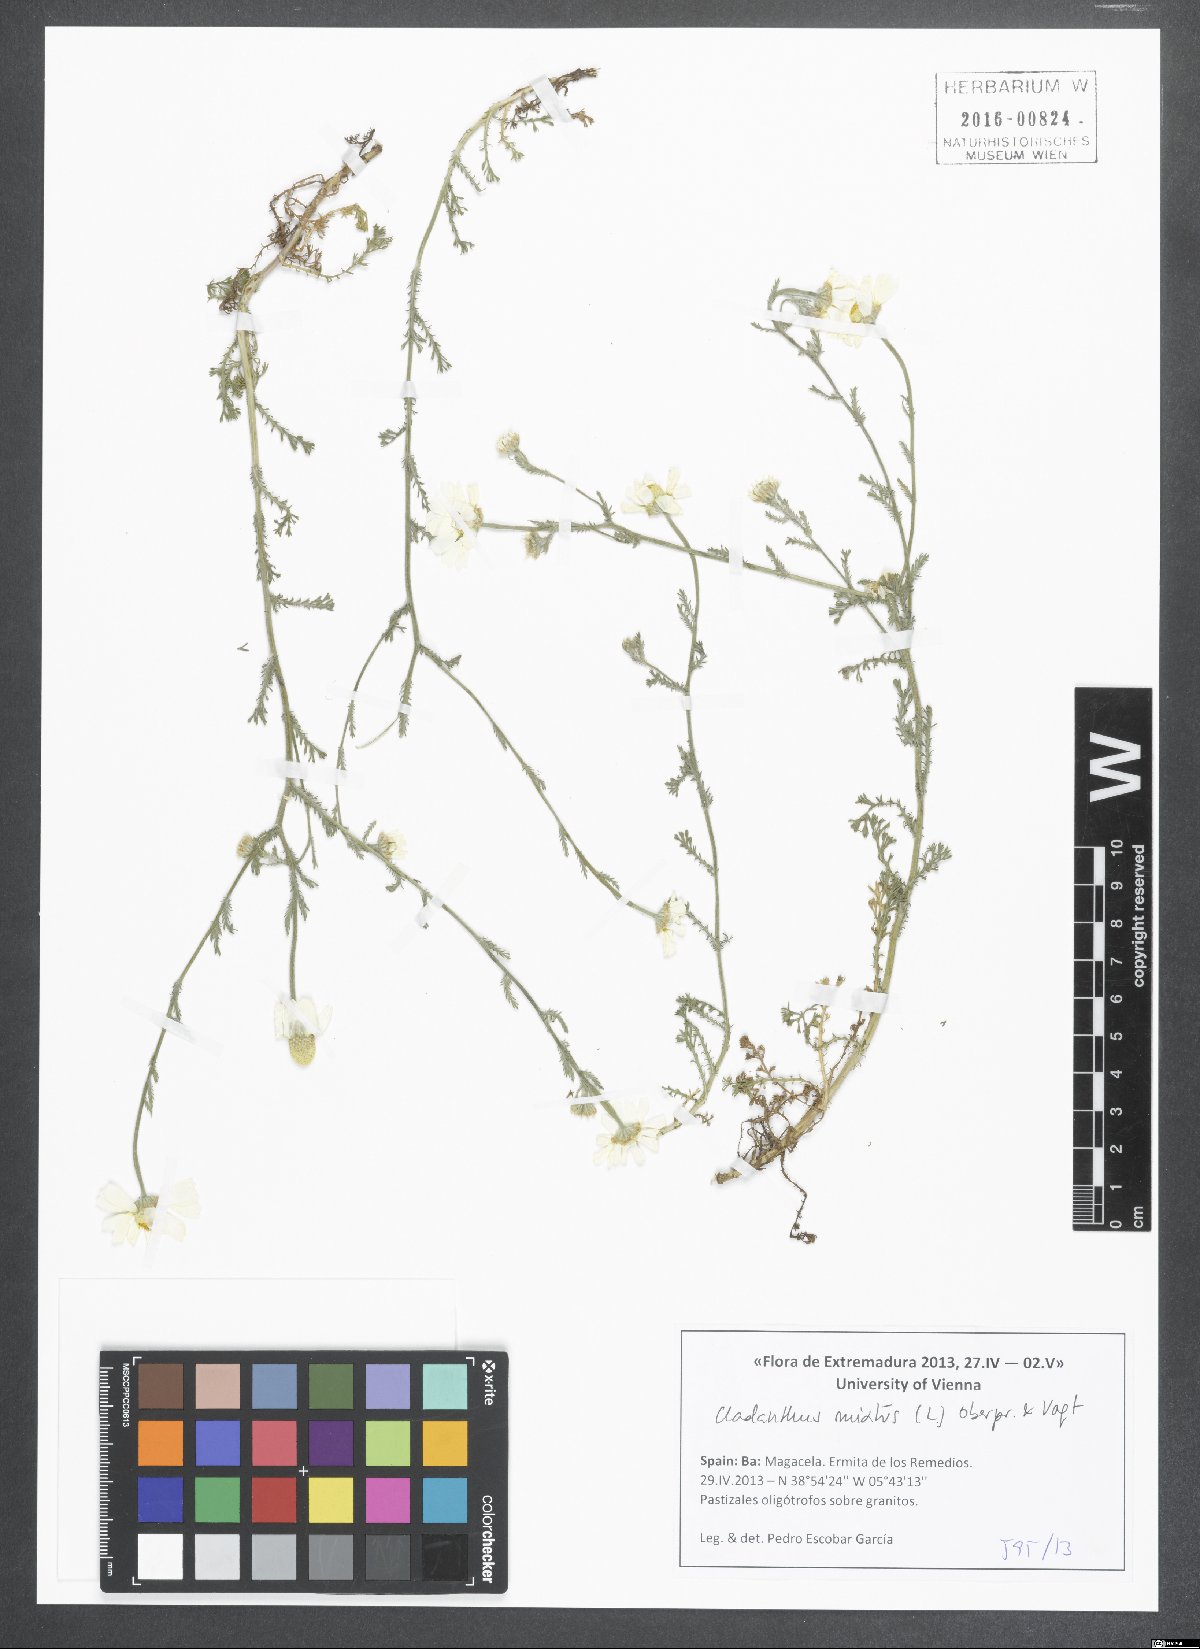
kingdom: Plantae
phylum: Tracheophyta
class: Magnoliopsida
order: Asterales
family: Asteraceae
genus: Cladanthus
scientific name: Cladanthus mixtus
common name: Weedy dogfennel
